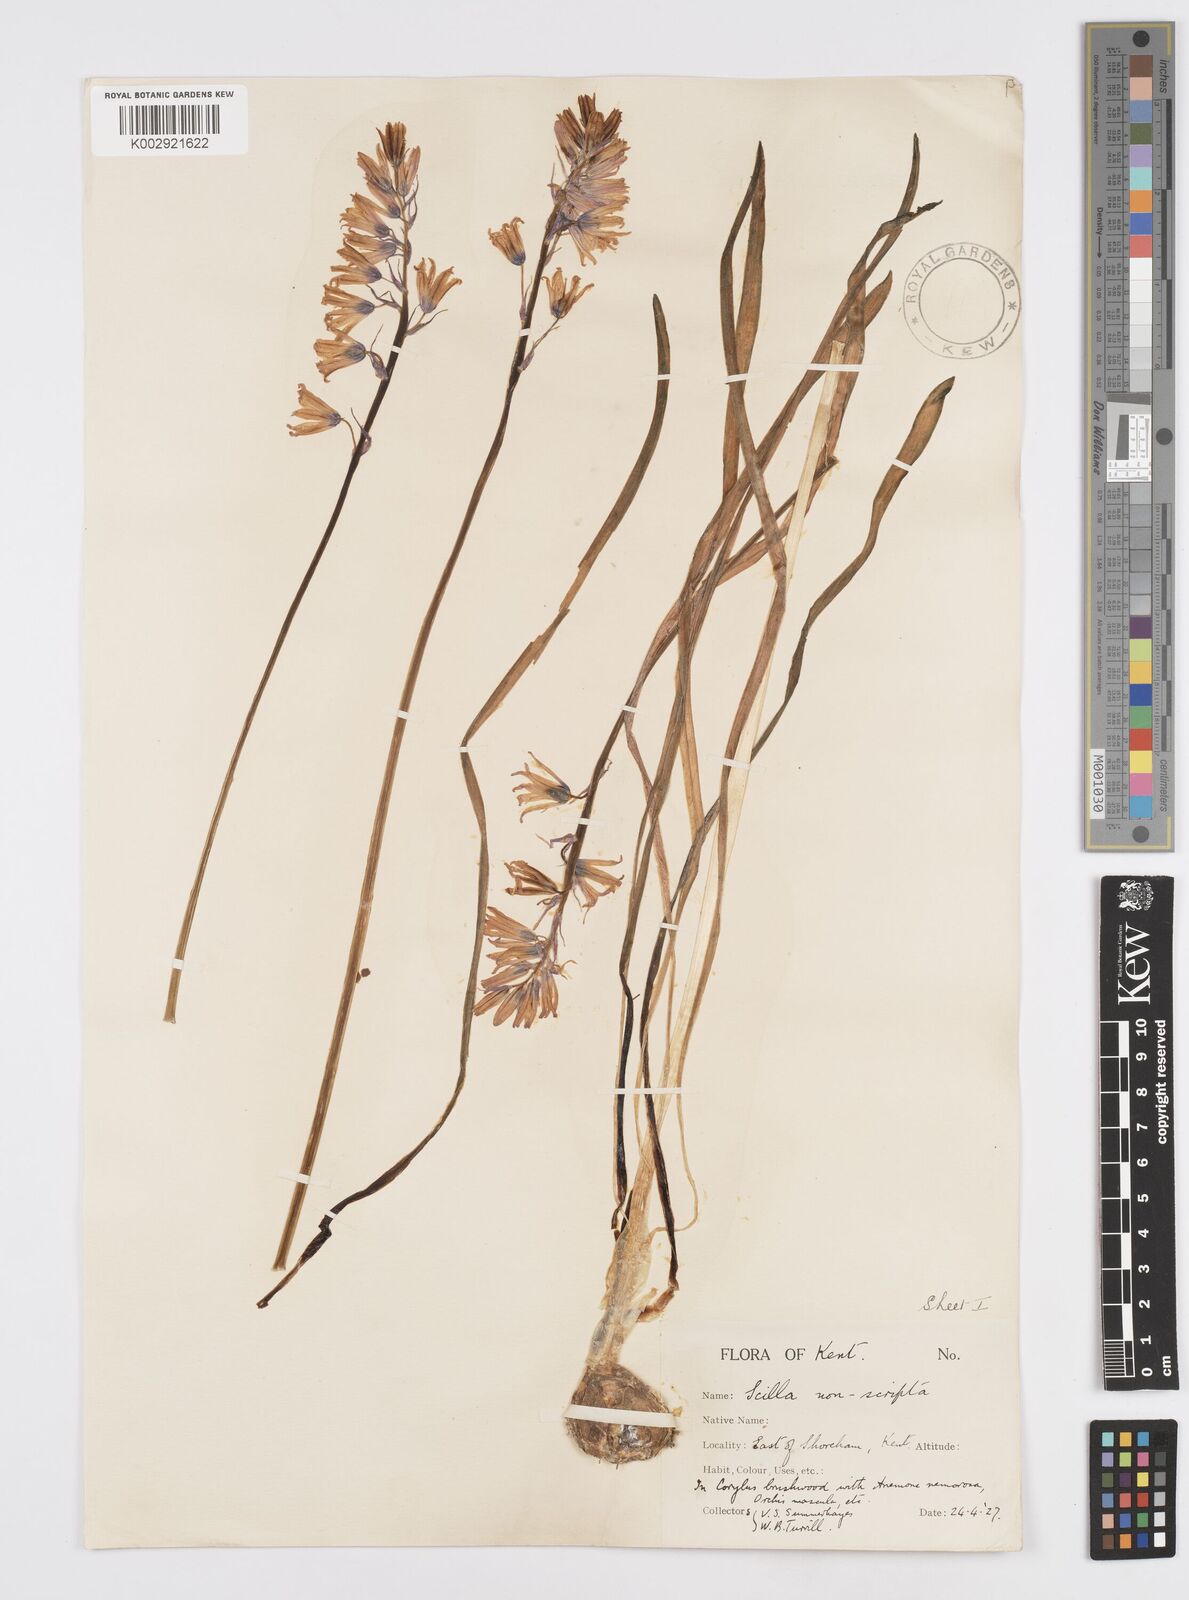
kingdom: Plantae
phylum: Tracheophyta
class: Liliopsida
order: Asparagales
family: Asparagaceae
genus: Hyacinthoides
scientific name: Hyacinthoides non-scripta
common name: Bluebell
